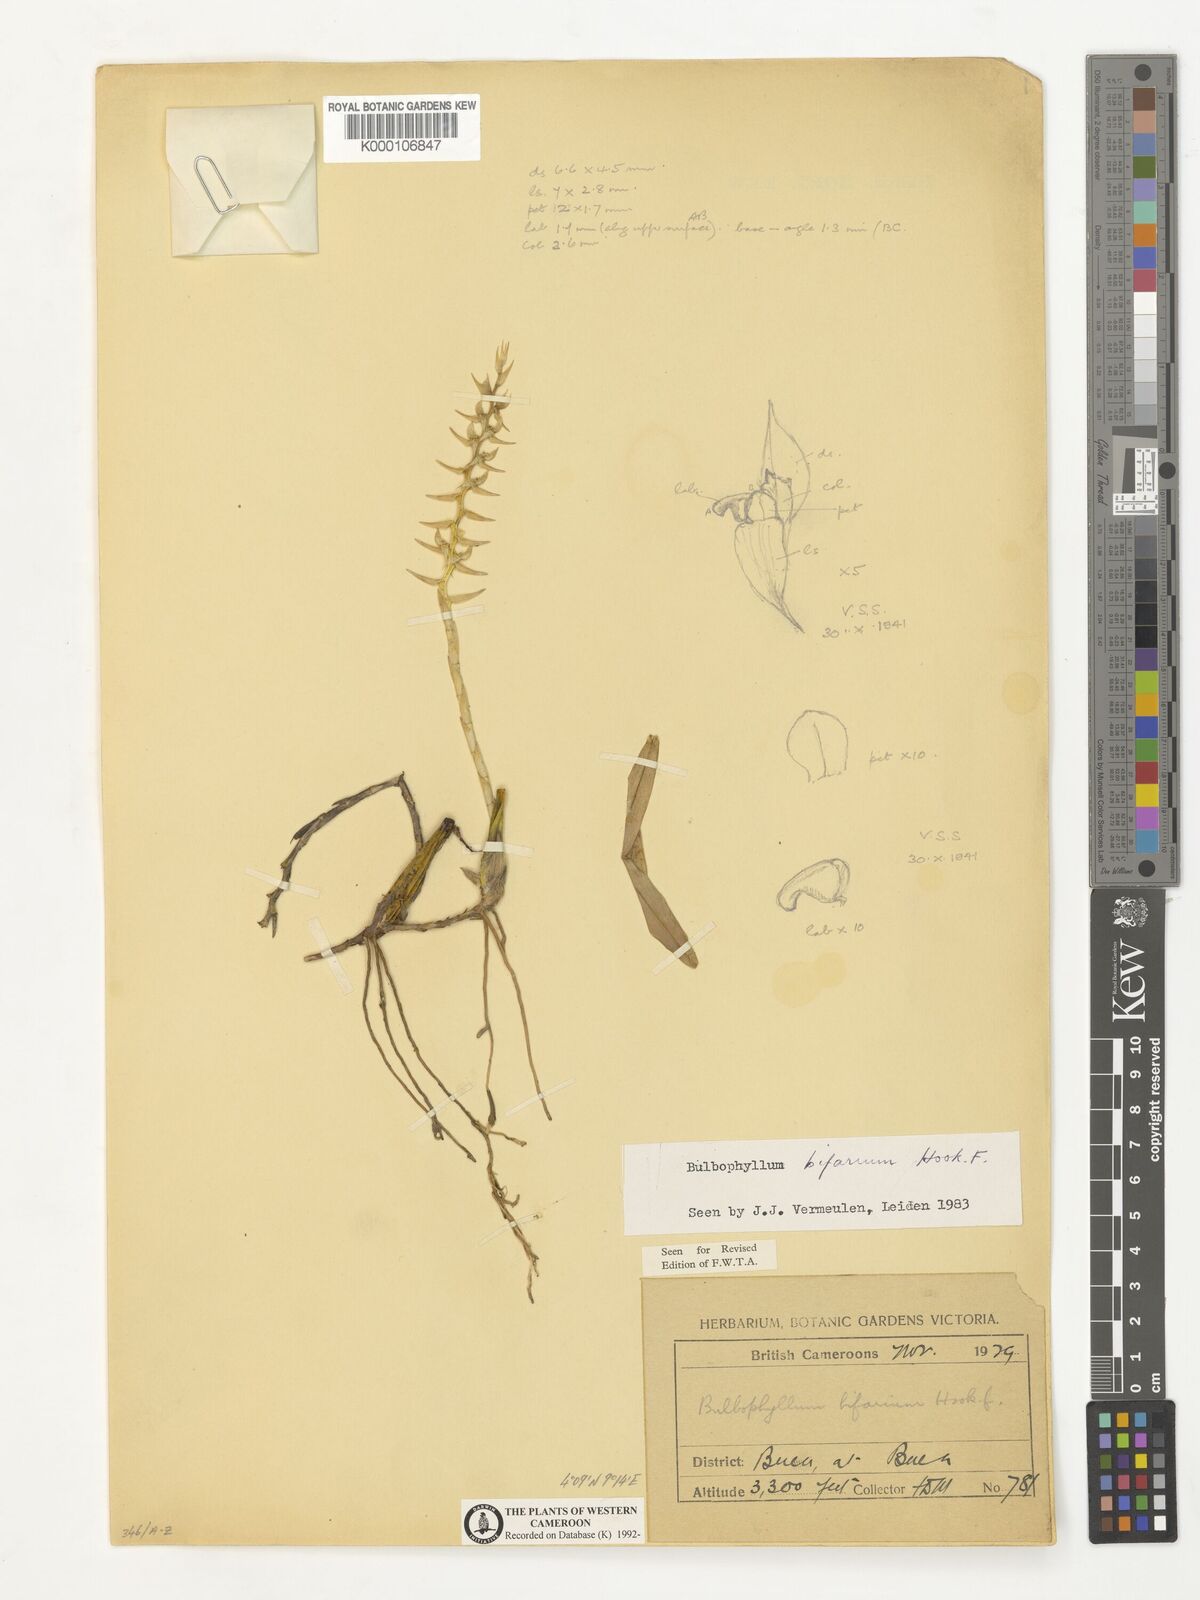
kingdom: Plantae
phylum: Tracheophyta
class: Liliopsida
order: Asparagales
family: Orchidaceae
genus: Bulbophyllum
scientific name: Bulbophyllum bifarium
